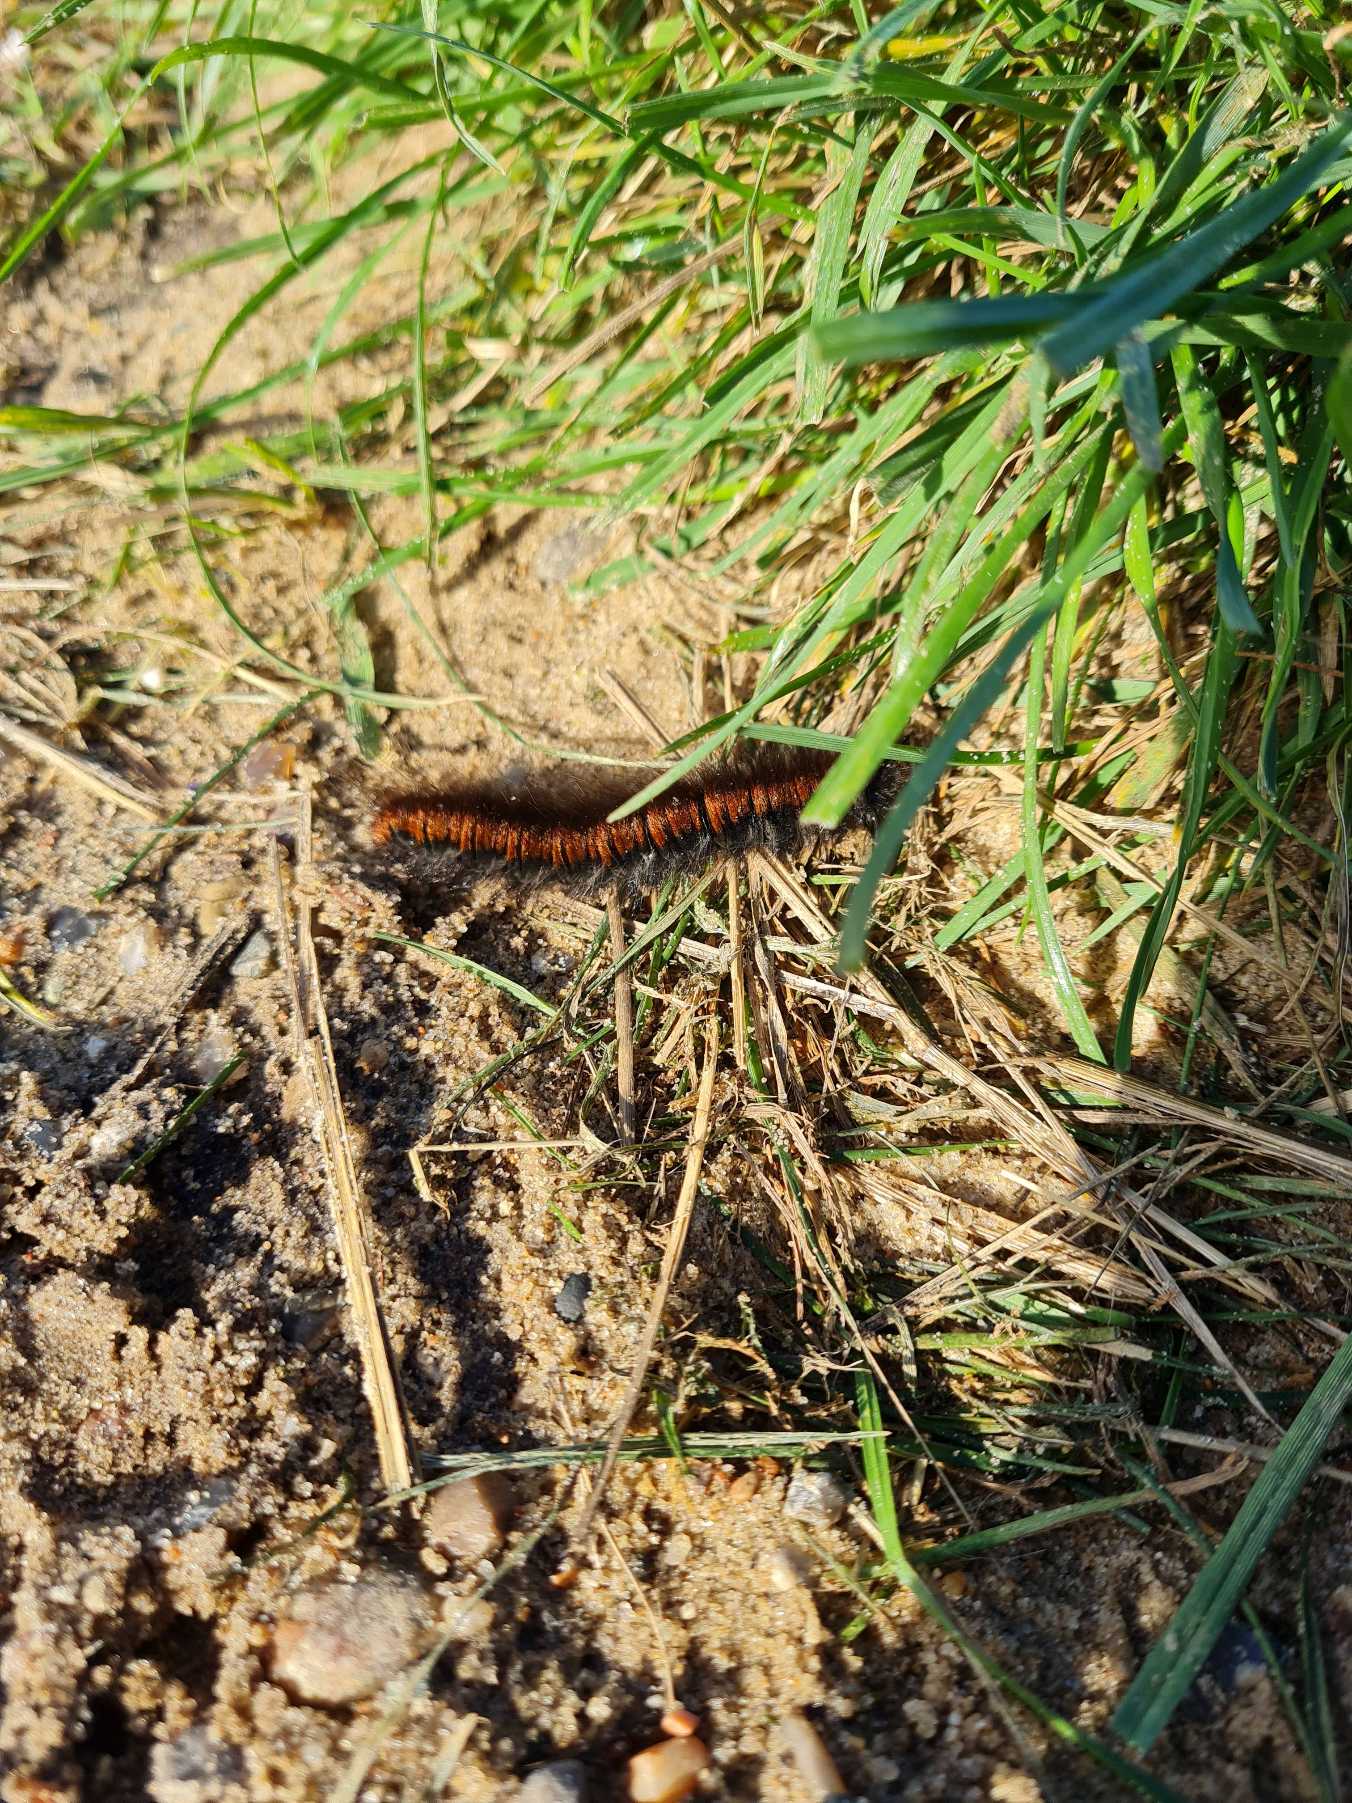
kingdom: Animalia
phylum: Arthropoda
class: Insecta
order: Lepidoptera
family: Lasiocampidae
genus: Macrothylacia
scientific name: Macrothylacia rubi
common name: Brombærspinder
